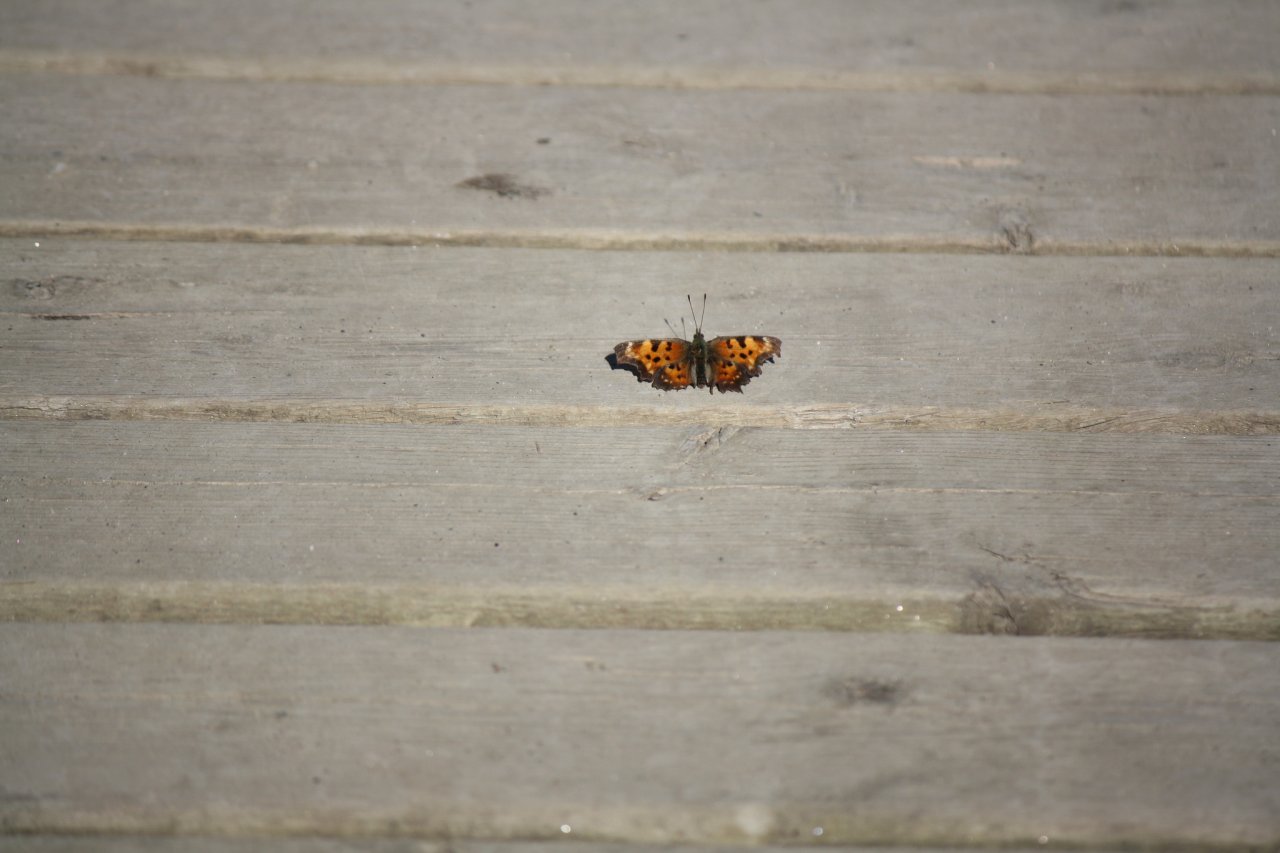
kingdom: Animalia
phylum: Arthropoda
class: Insecta
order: Lepidoptera
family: Nymphalidae
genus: Polygonia
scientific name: Polygonia faunus
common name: Green Comma
